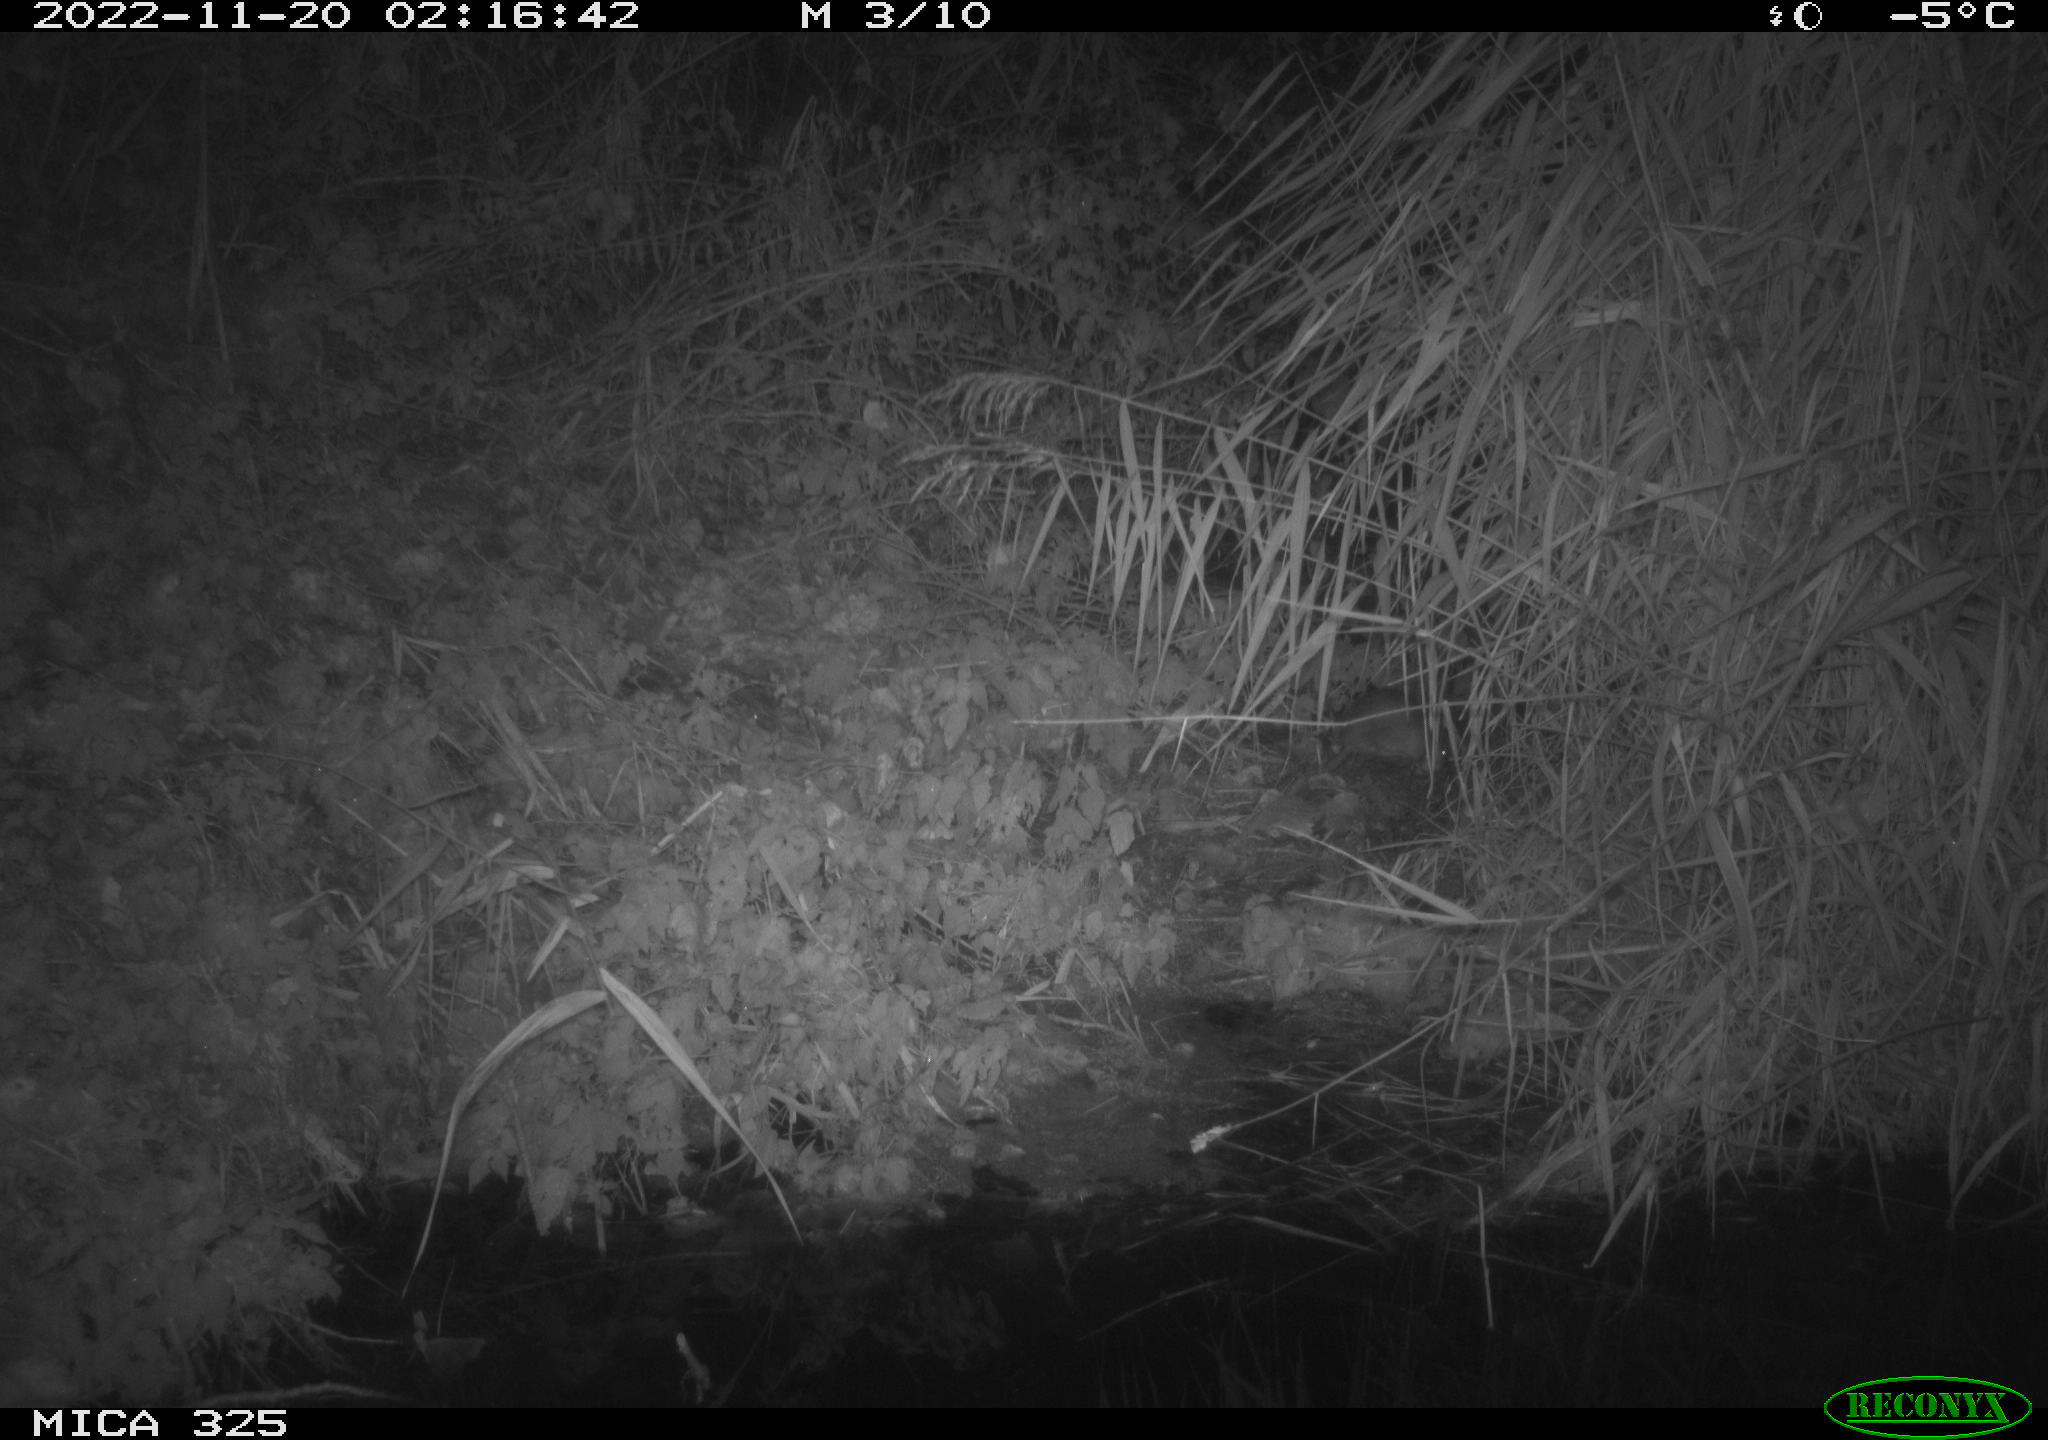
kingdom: Animalia
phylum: Chordata
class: Mammalia
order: Rodentia
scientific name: Rodentia
